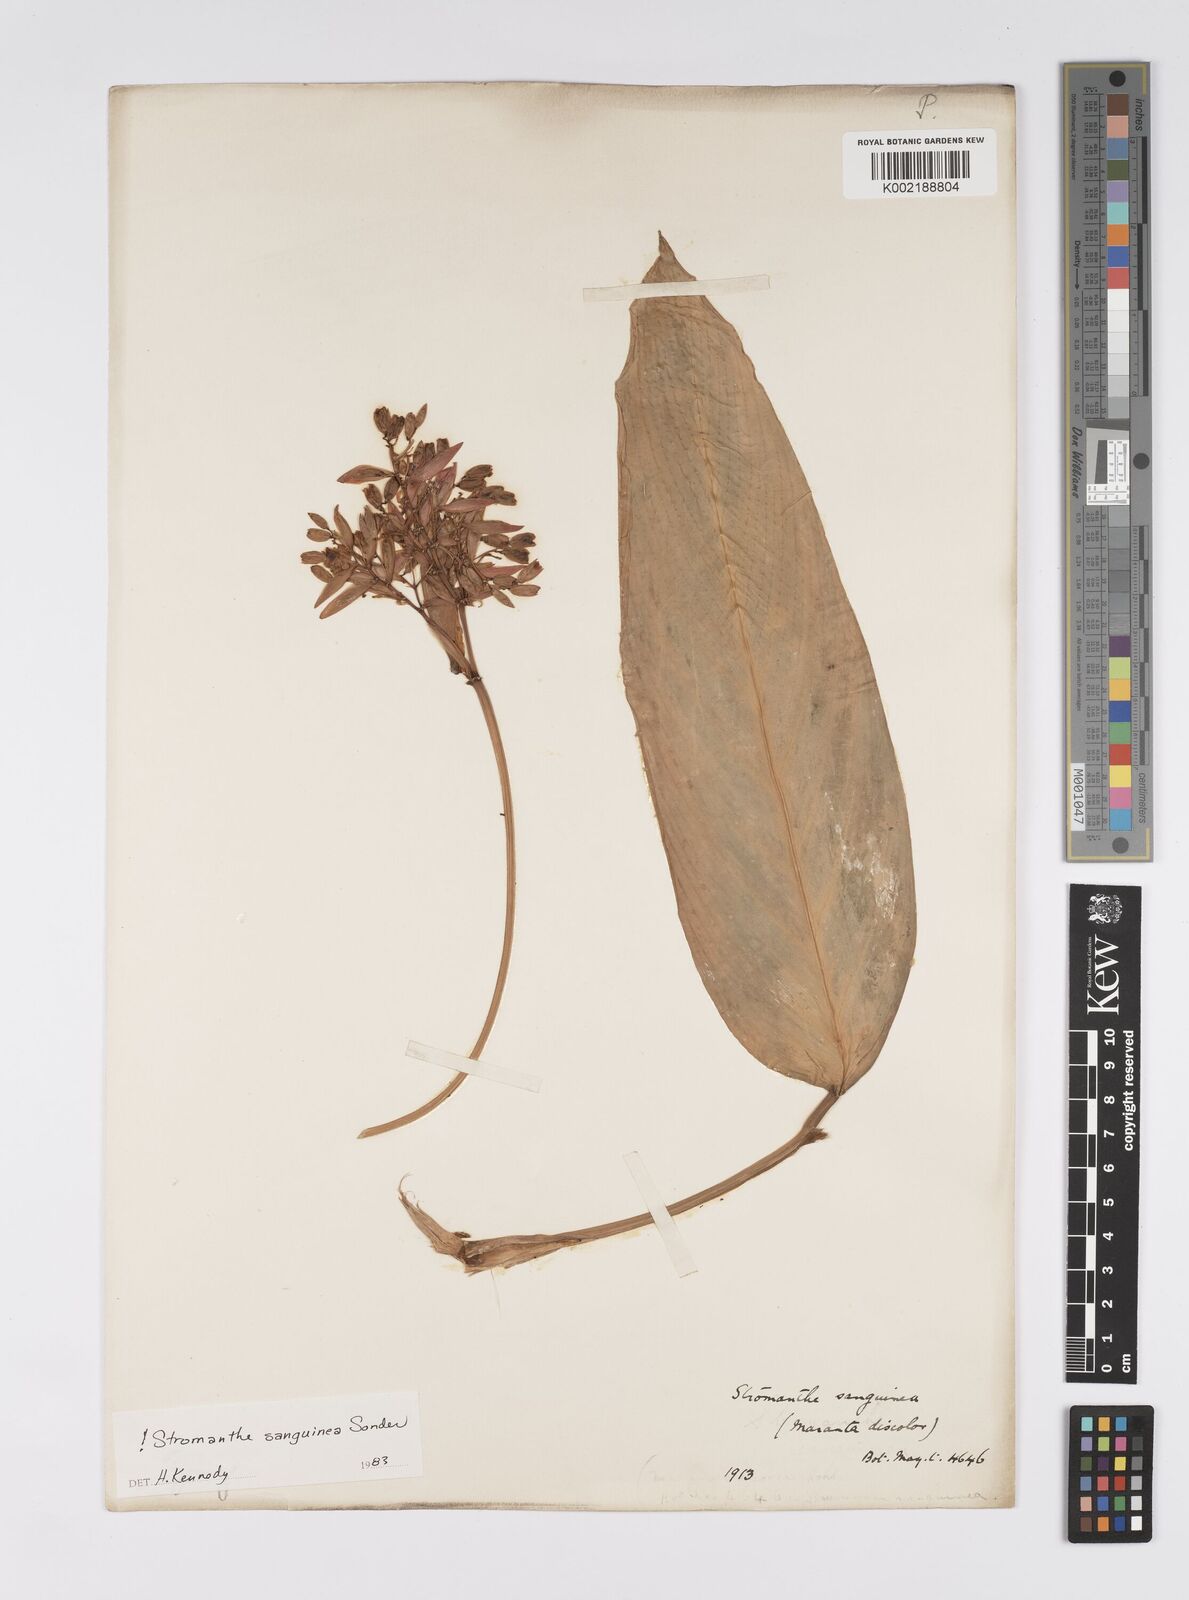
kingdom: Plantae
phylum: Tracheophyta
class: Liliopsida
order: Zingiberales
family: Marantaceae
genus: Stromanthe
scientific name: Stromanthe thalia
